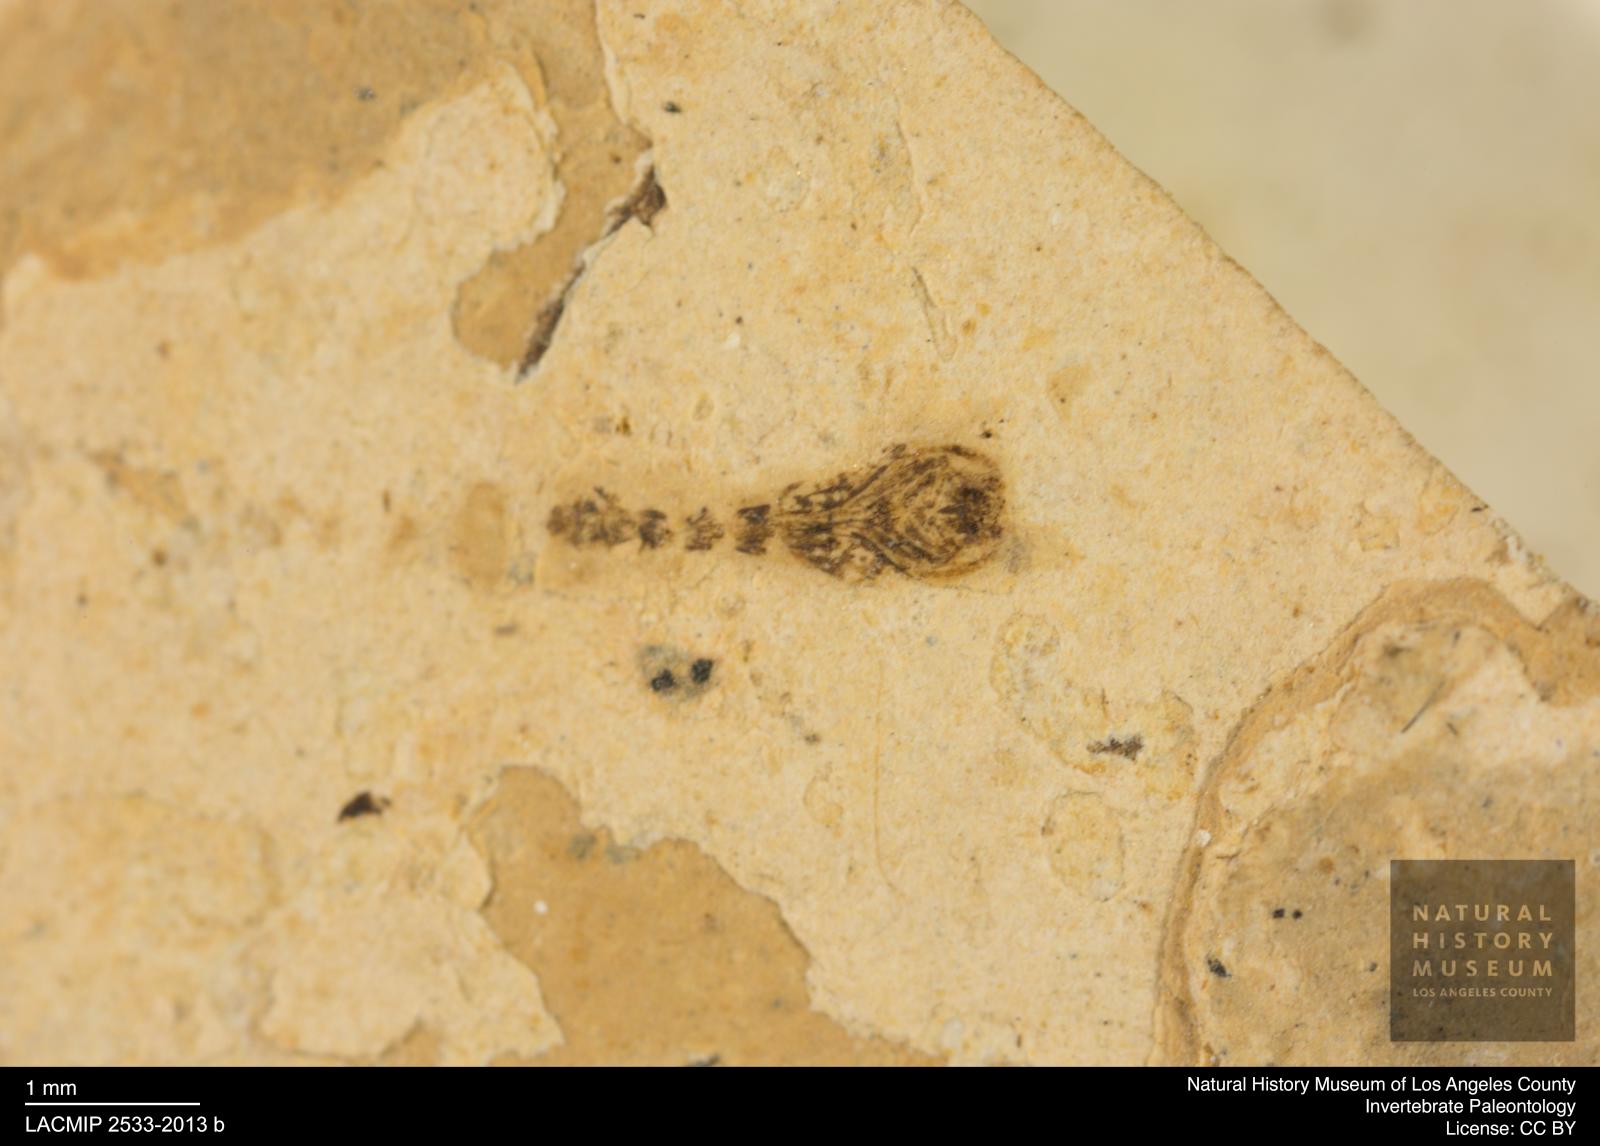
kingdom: Animalia
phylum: Arthropoda
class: Insecta
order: Diptera
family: Ceratopogonidae
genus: Ceratopogon
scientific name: Ceratopogon
